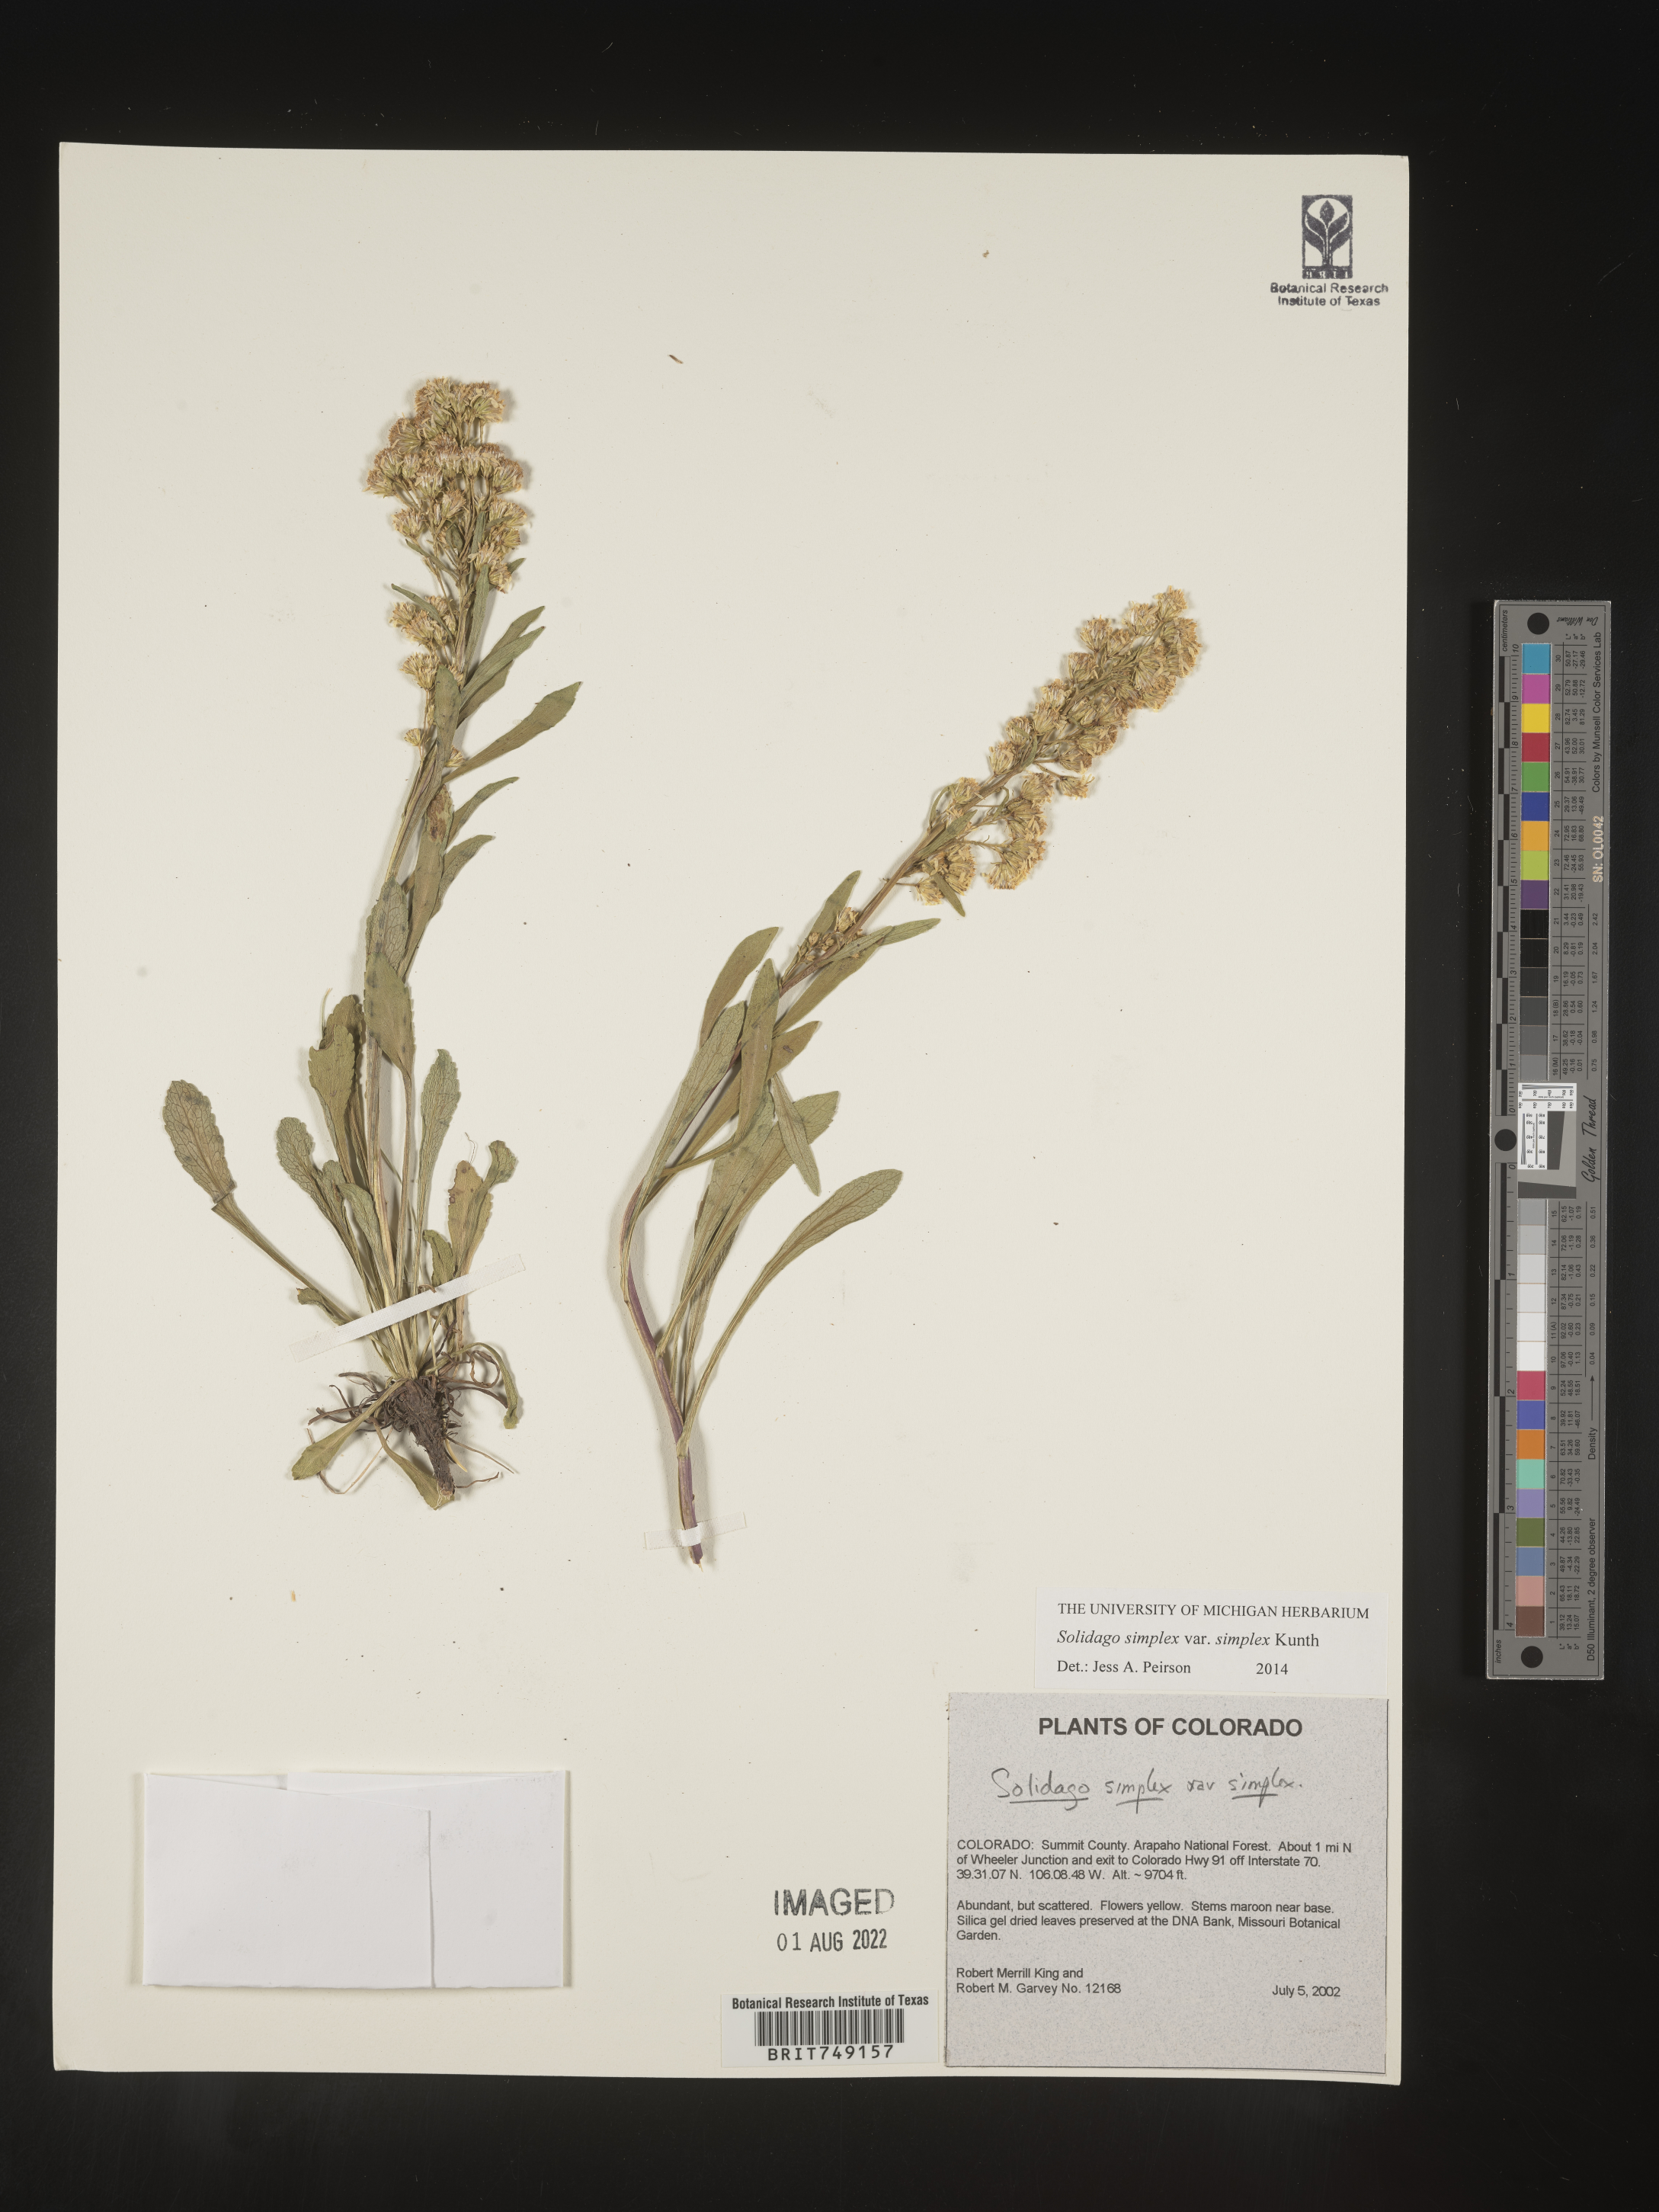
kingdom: Plantae
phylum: Tracheophyta
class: Magnoliopsida
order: Asterales
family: Asteraceae
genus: Solidago
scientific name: Solidago simplex
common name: Sticky goldenrod
